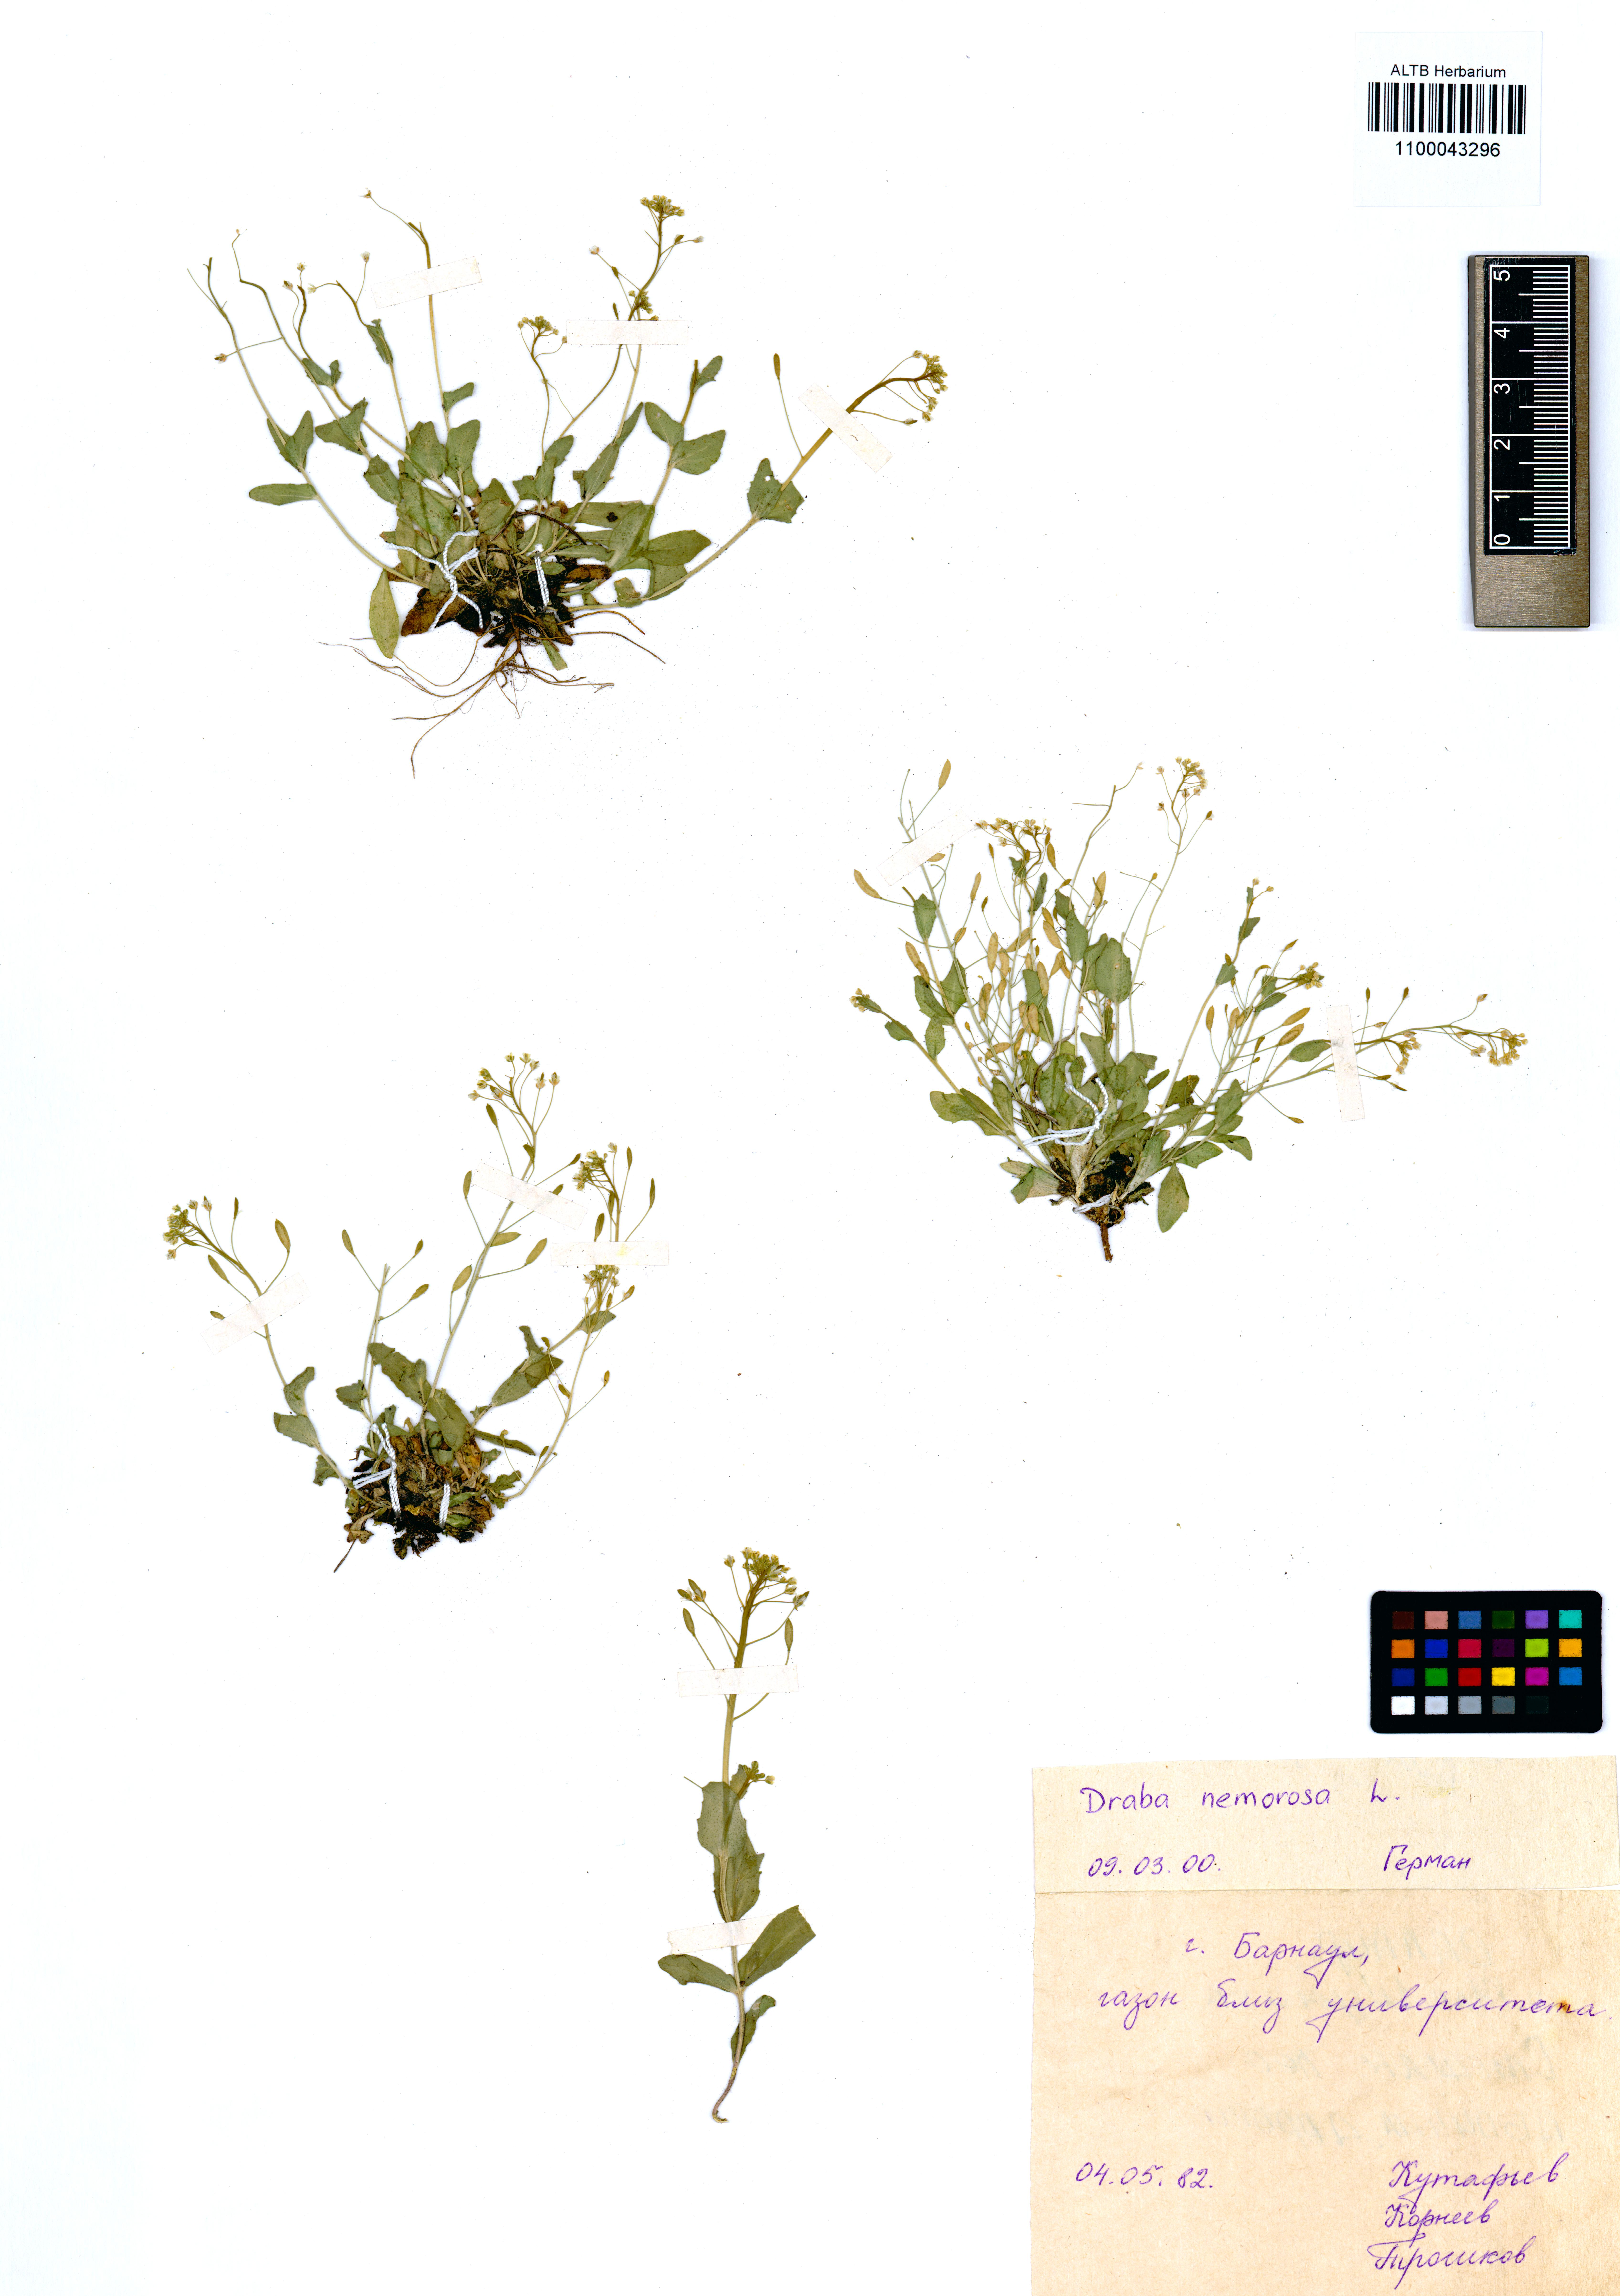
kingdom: Plantae
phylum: Tracheophyta
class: Magnoliopsida
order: Brassicales
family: Brassicaceae
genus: Draba
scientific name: Draba nemorosa
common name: Wood whitlow-grass
